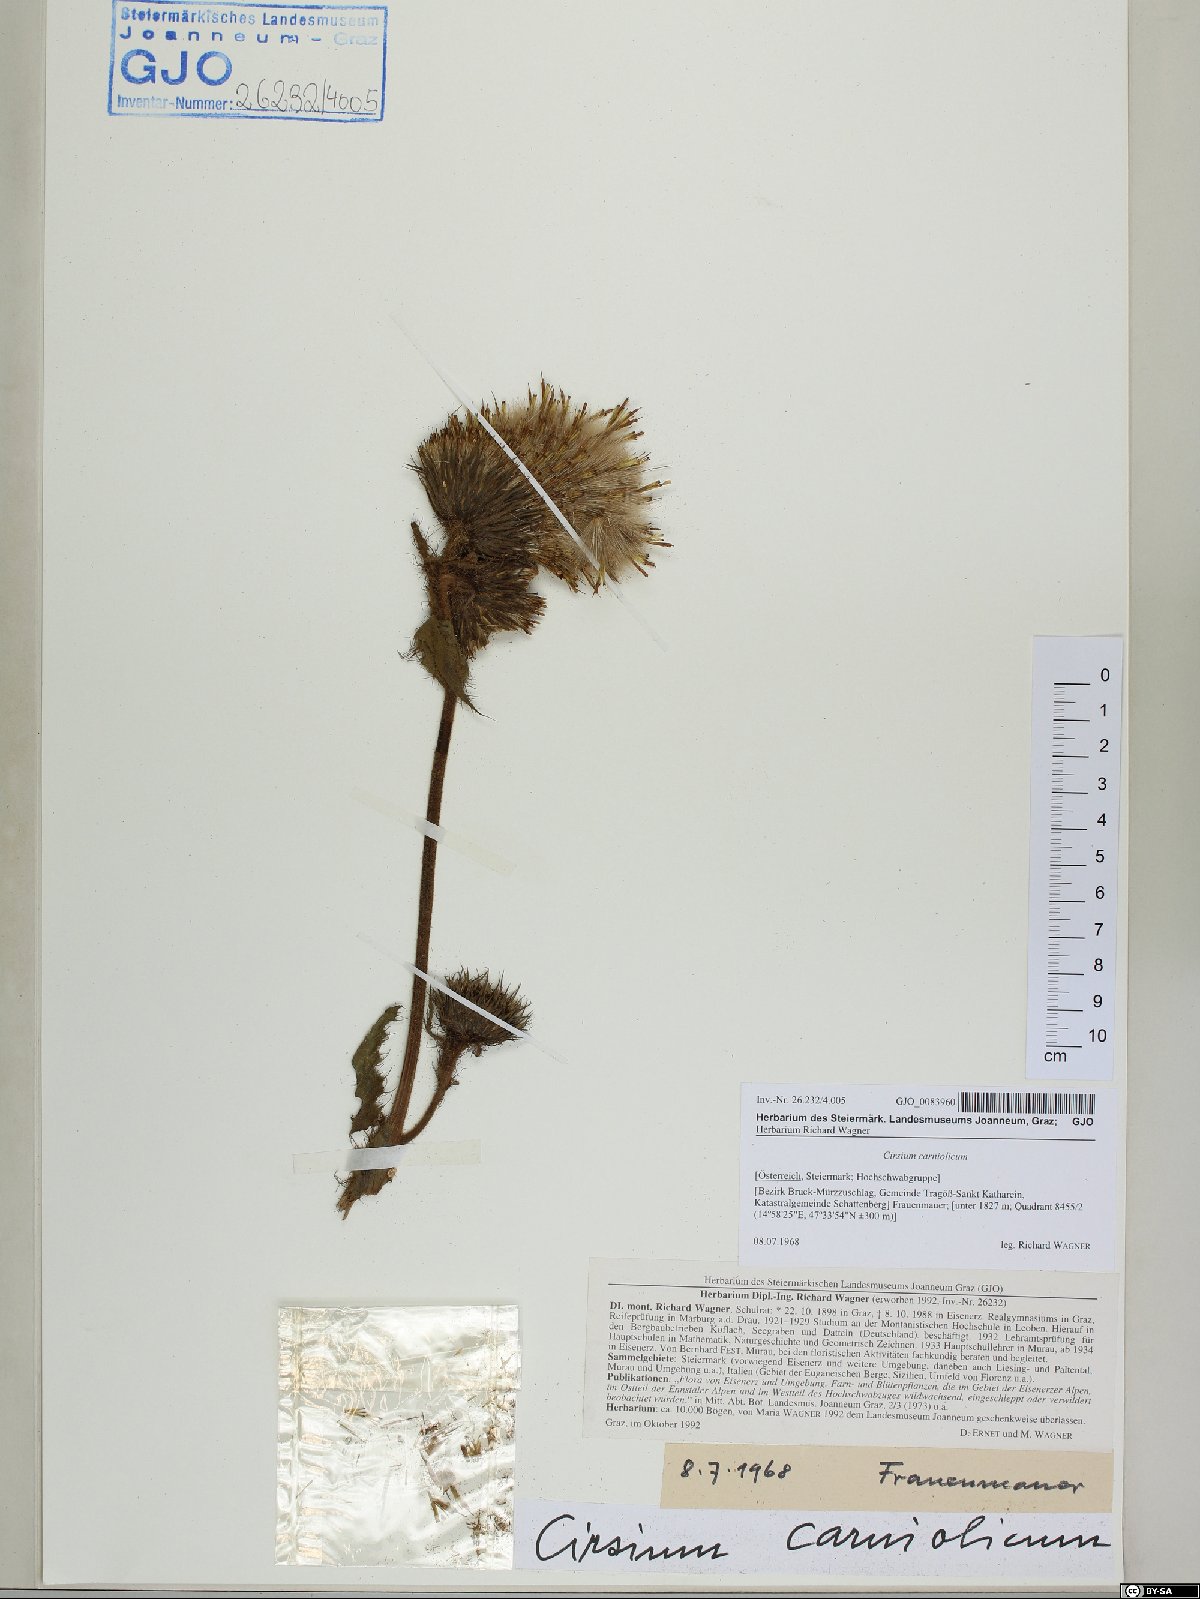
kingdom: Plantae
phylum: Tracheophyta
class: Magnoliopsida
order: Asterales
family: Asteraceae
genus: Cirsium
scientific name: Cirsium carniolicum
